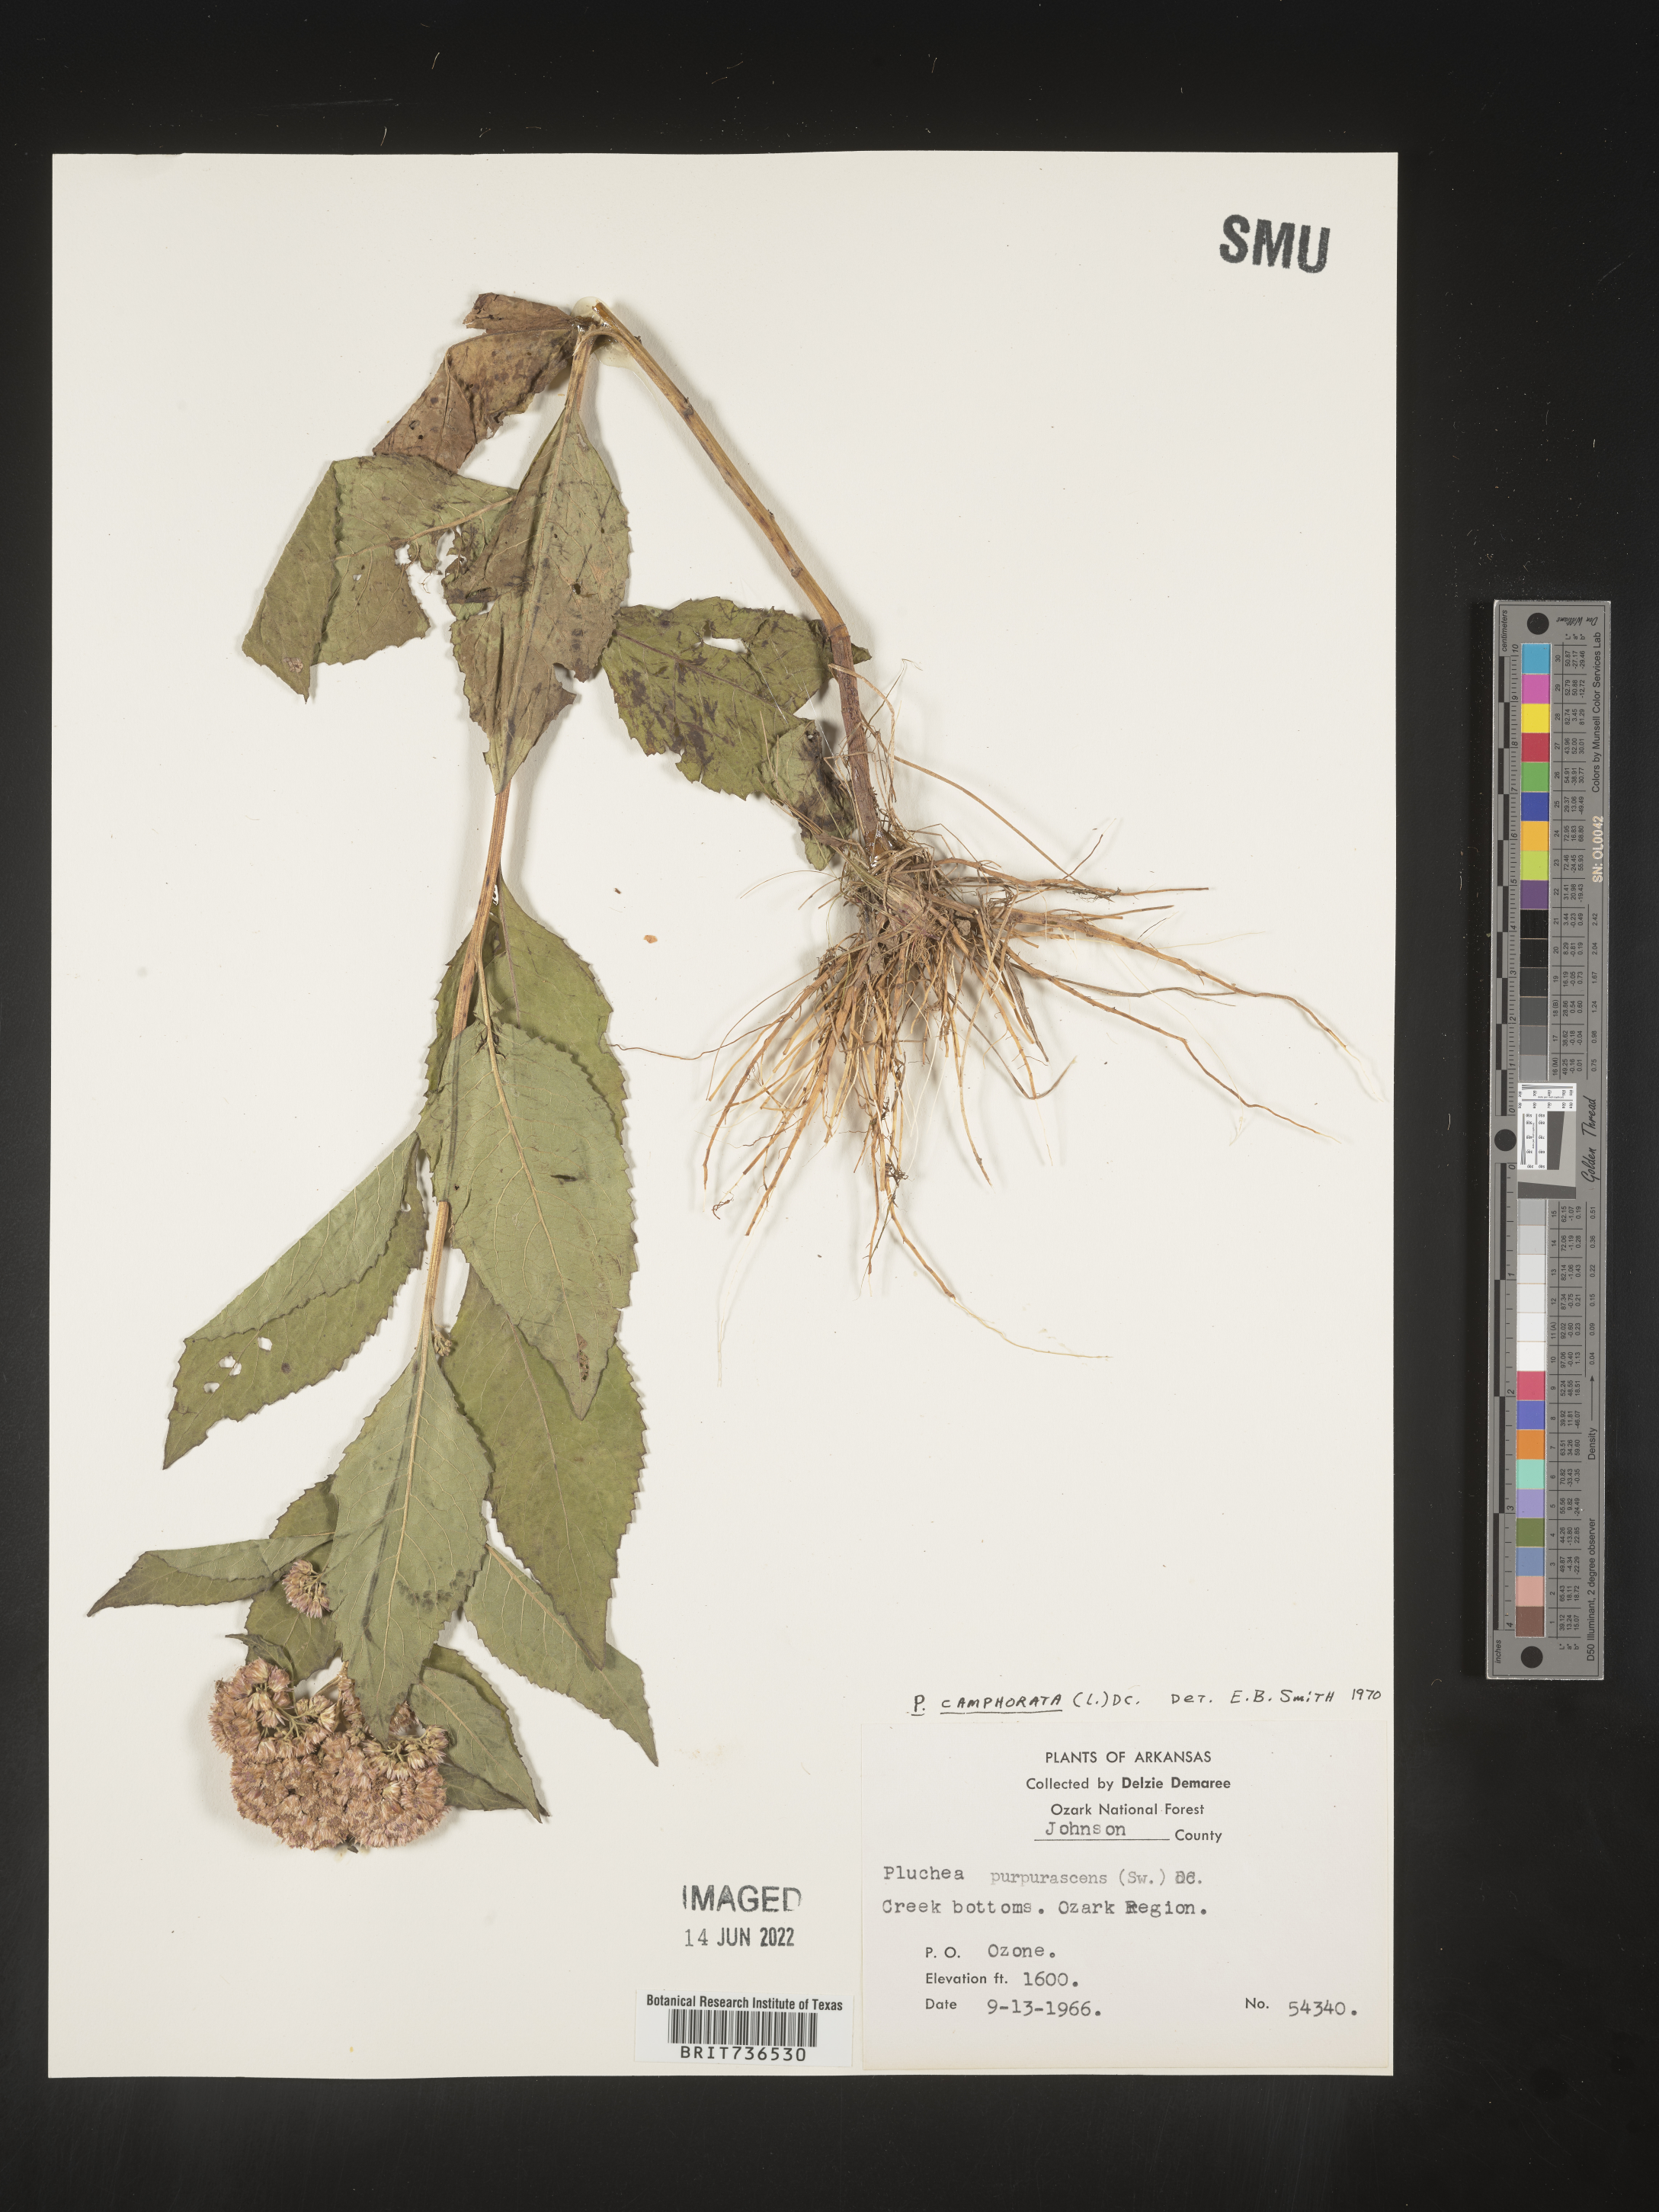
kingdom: Plantae
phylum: Tracheophyta
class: Magnoliopsida
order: Asterales
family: Asteraceae
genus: Pluchea
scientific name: Pluchea camphorata
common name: Camphor pluchea
